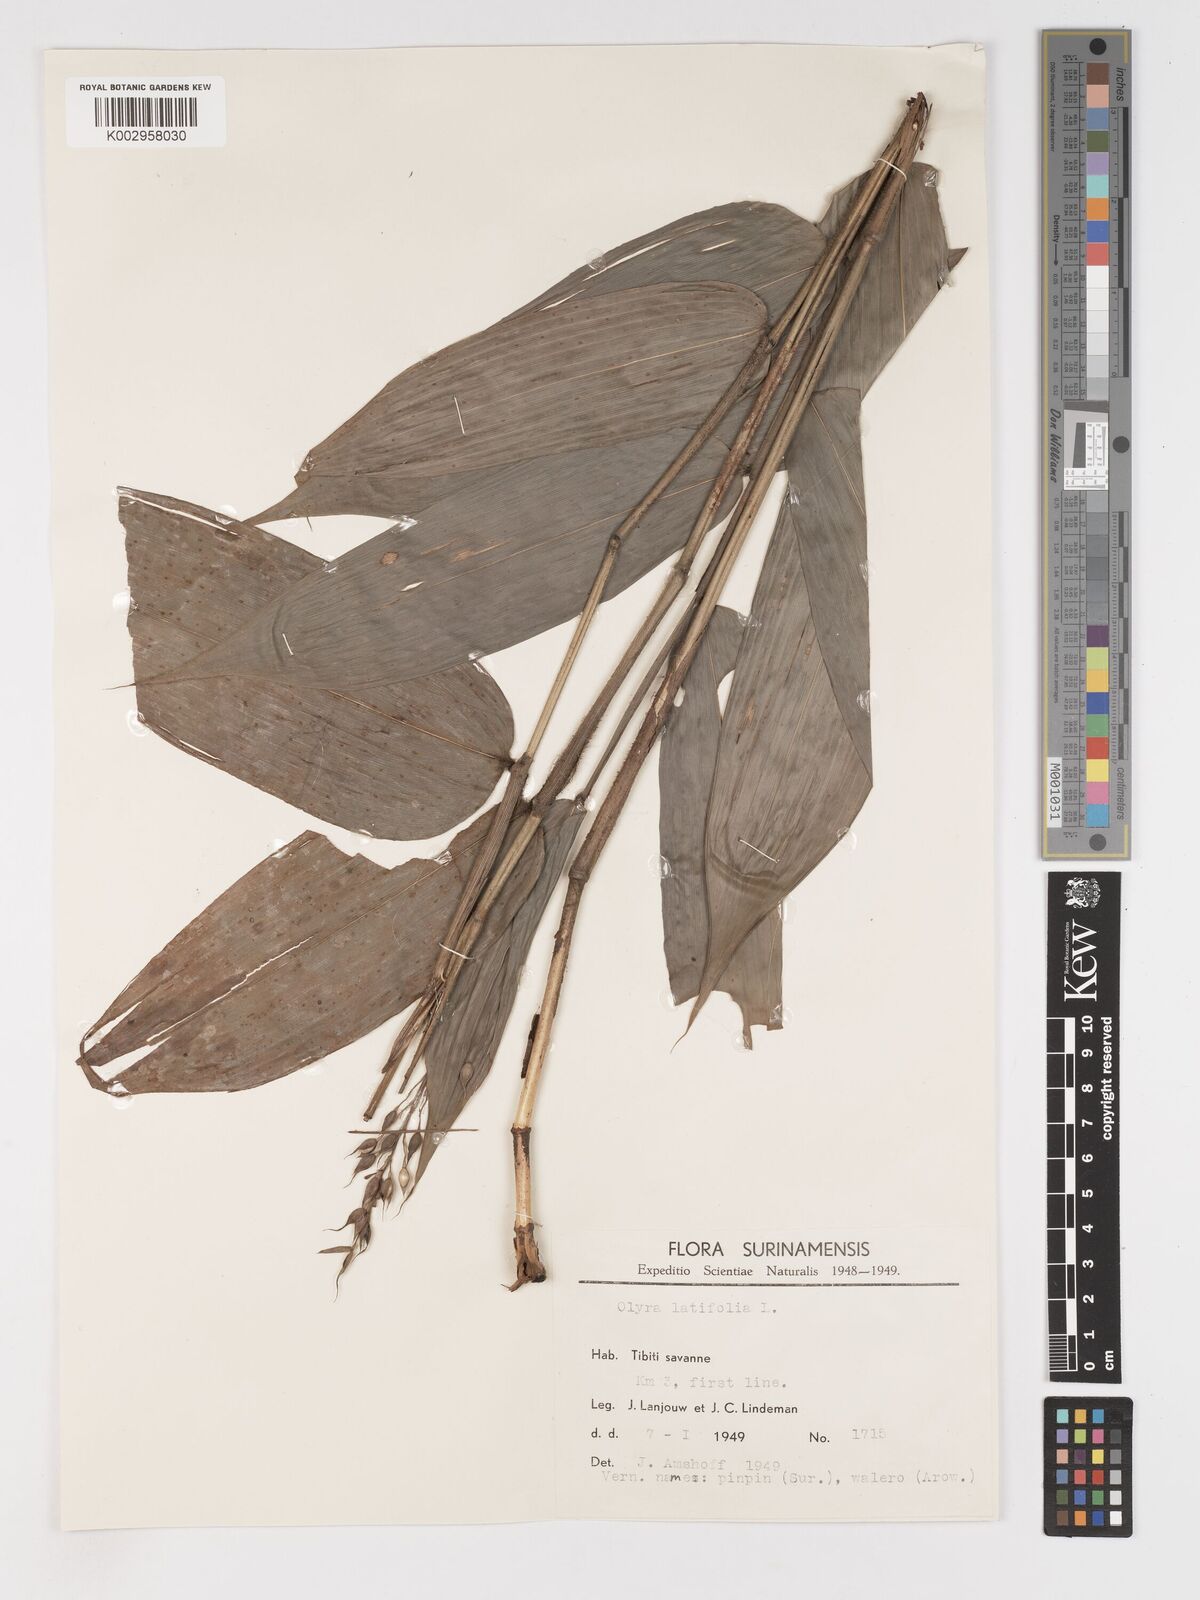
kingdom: Plantae
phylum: Tracheophyta
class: Liliopsida
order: Poales
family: Poaceae
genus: Olyra
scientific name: Olyra latifolia
